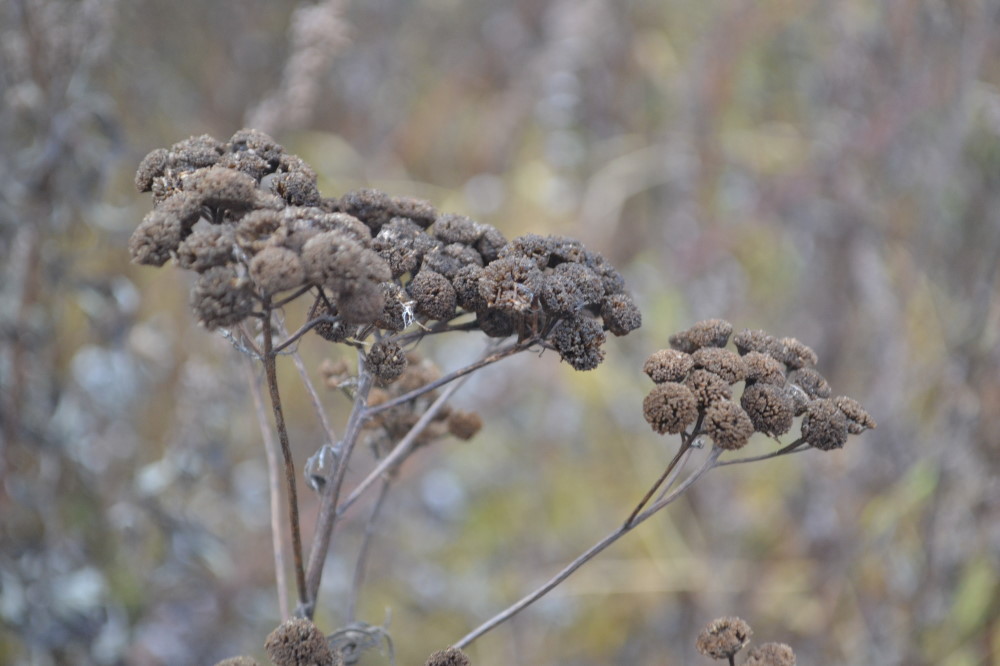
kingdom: Plantae
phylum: Tracheophyta
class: Magnoliopsida
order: Asterales
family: Asteraceae
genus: Tanacetum
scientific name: Tanacetum vulgare
